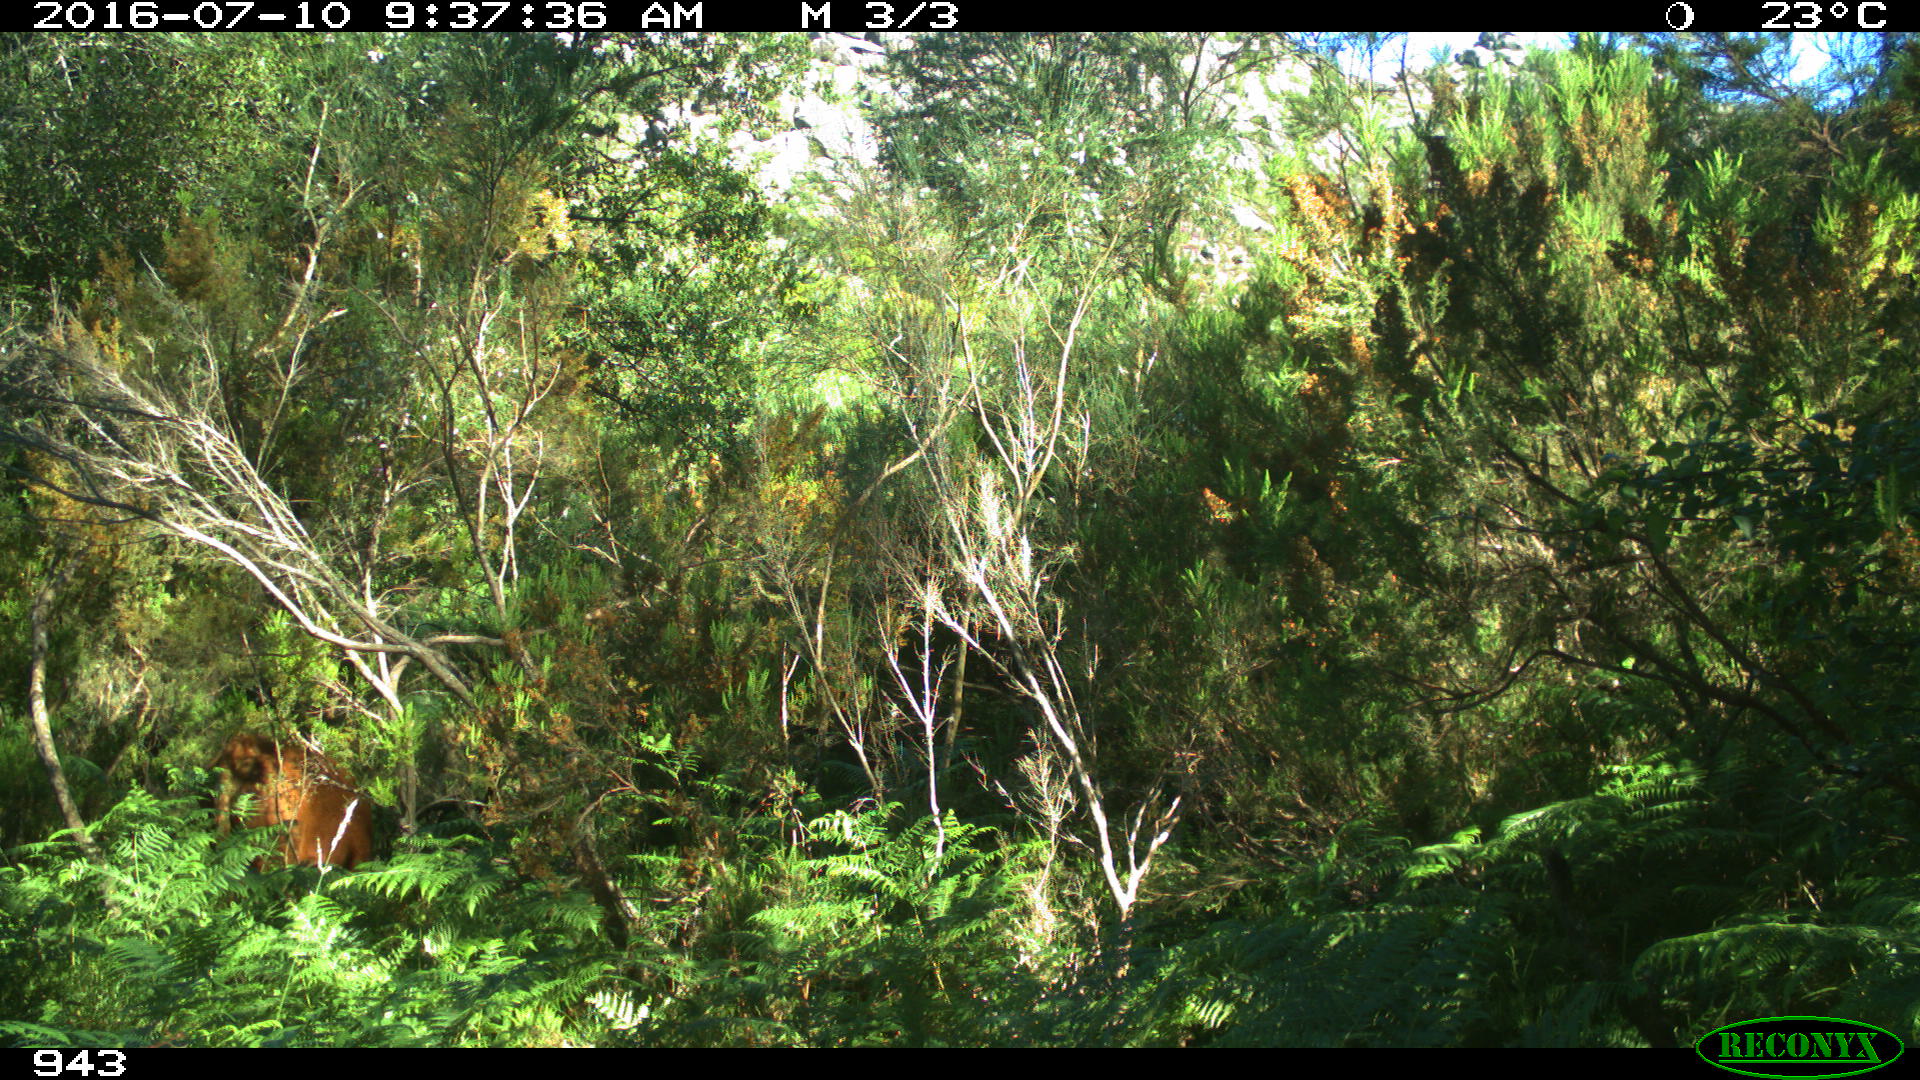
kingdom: Animalia
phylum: Chordata
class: Mammalia
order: Artiodactyla
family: Bovidae
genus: Bos
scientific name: Bos taurus
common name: Domesticated cattle
